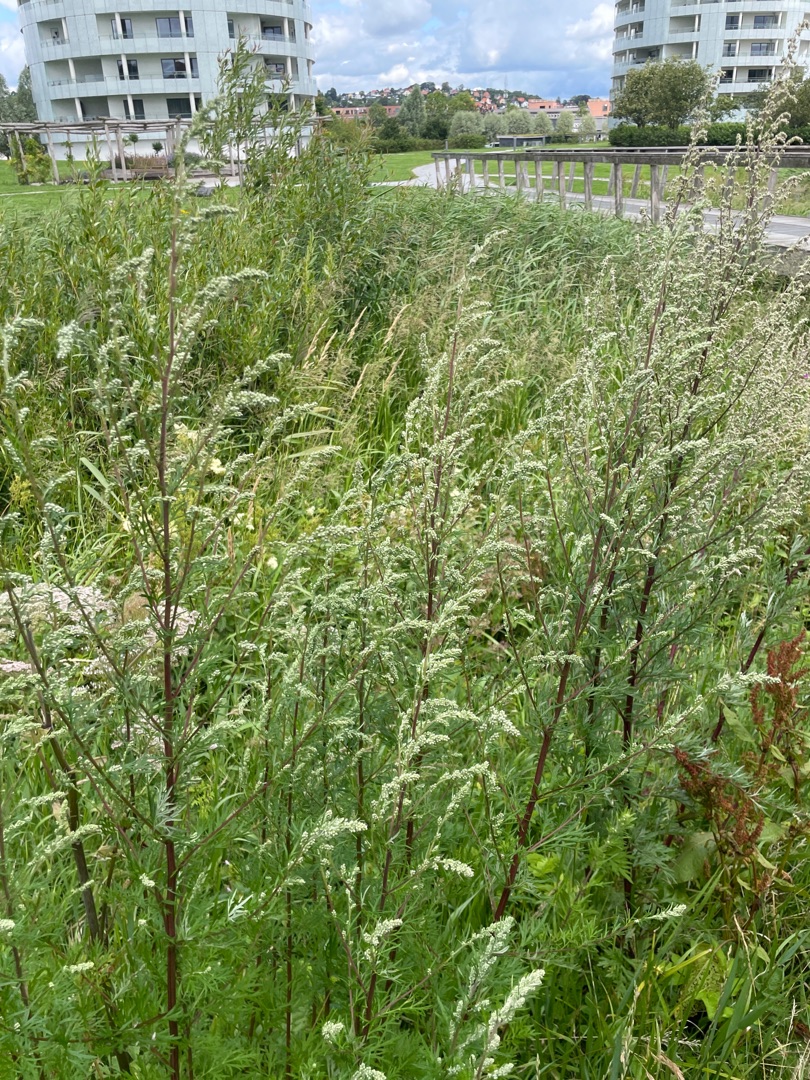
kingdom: Plantae
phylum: Tracheophyta
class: Magnoliopsida
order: Asterales
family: Asteraceae
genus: Artemisia
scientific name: Artemisia vulgaris
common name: Grå-bynke
